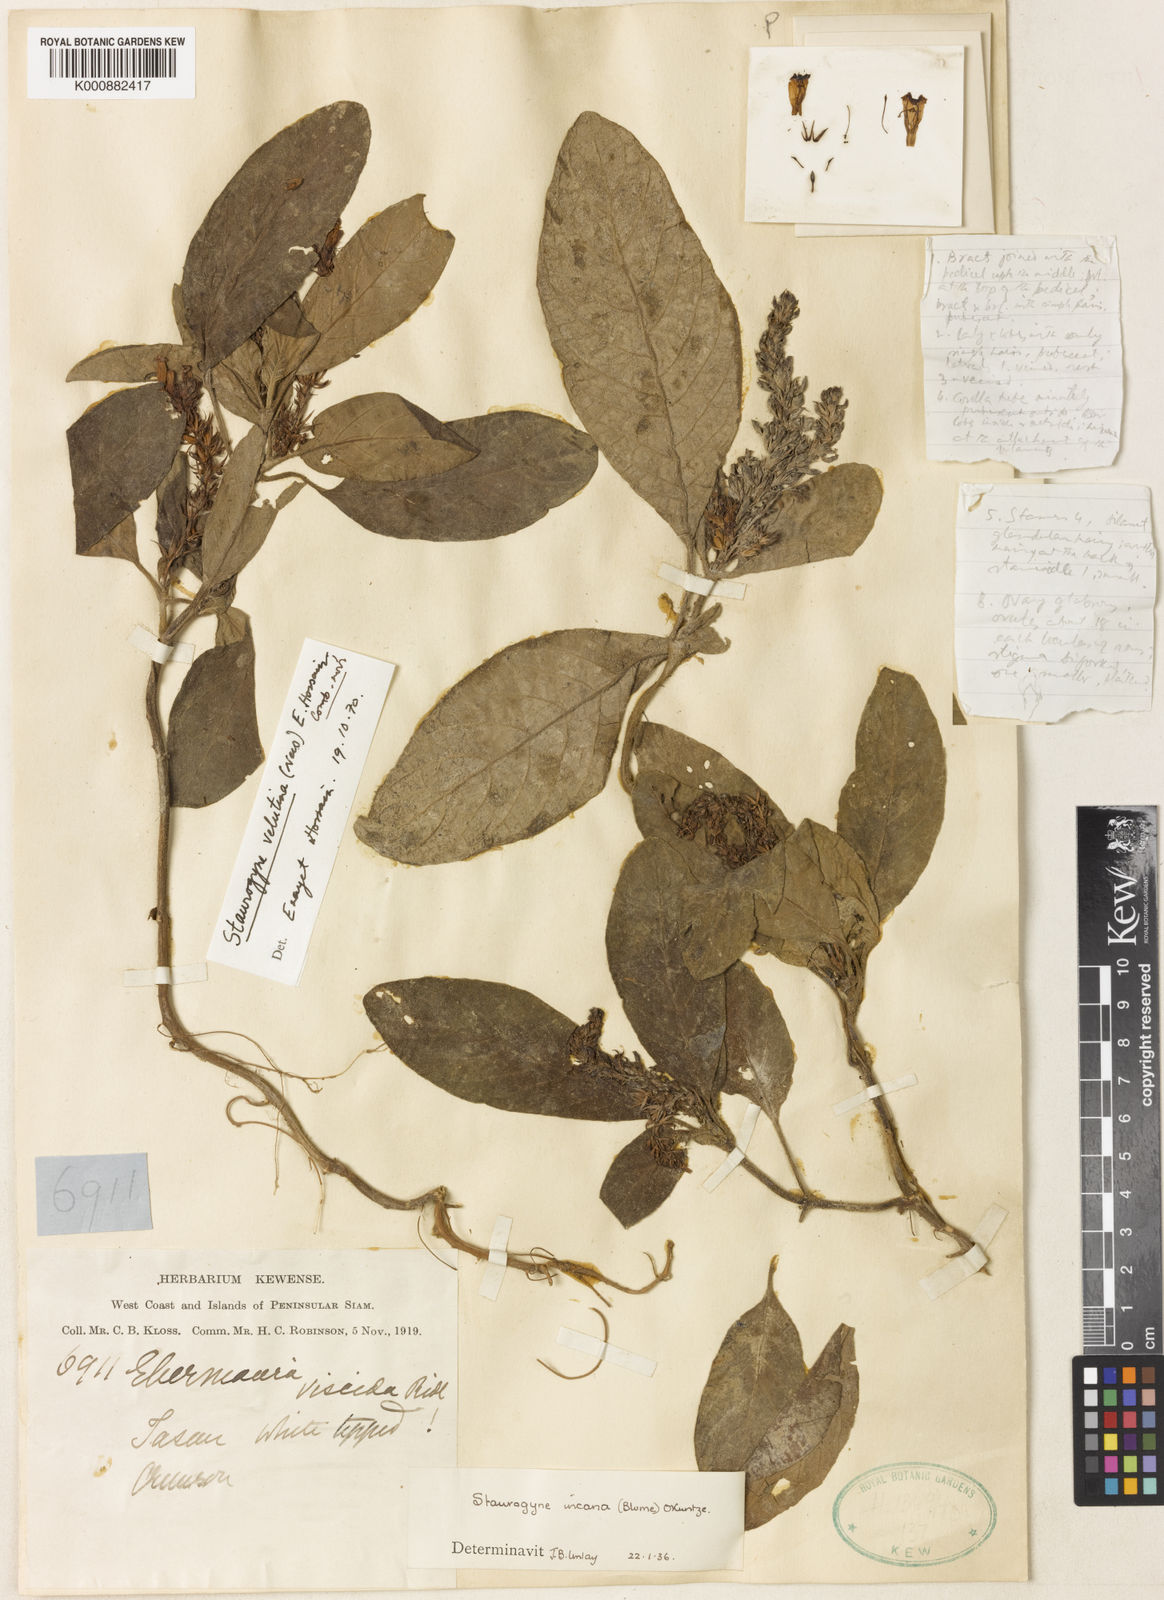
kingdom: Plantae
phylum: Tracheophyta
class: Magnoliopsida
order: Lamiales
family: Acanthaceae
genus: Staurogyne
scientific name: Staurogyne
